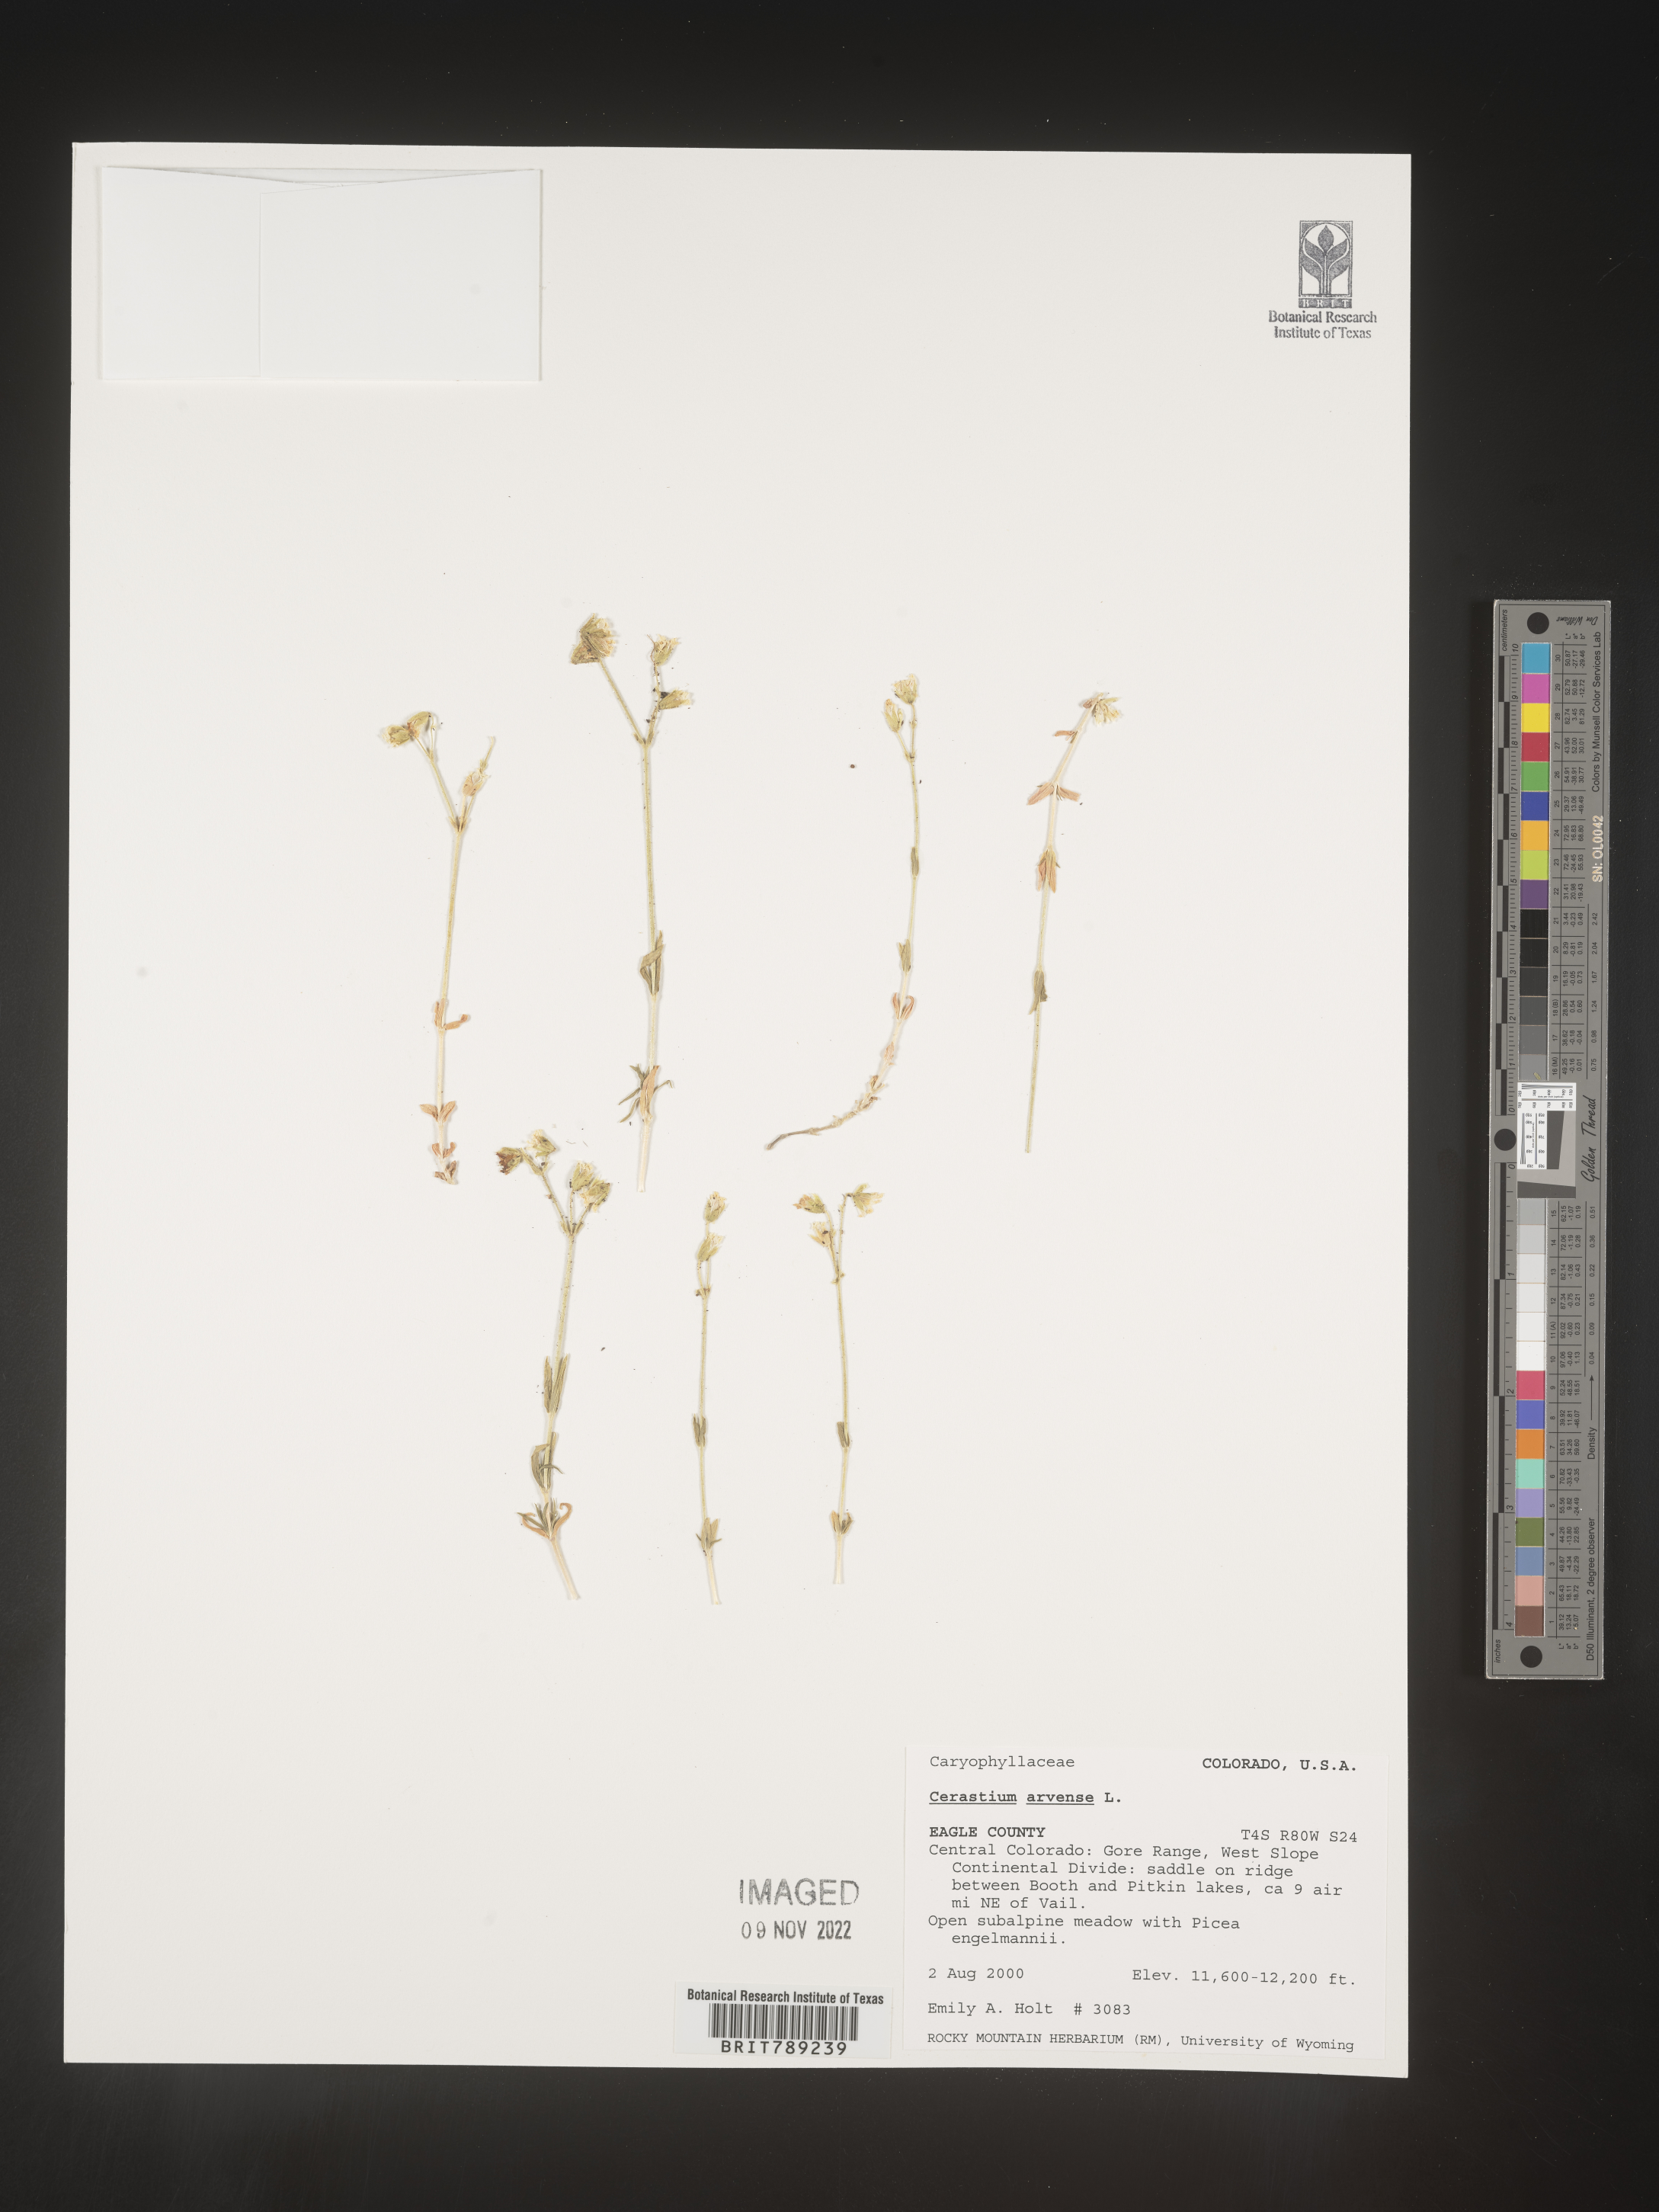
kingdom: Plantae
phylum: Tracheophyta
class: Magnoliopsida
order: Caryophyllales
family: Caryophyllaceae
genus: Cerastium
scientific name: Cerastium arvense
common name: Field mouse-ear
